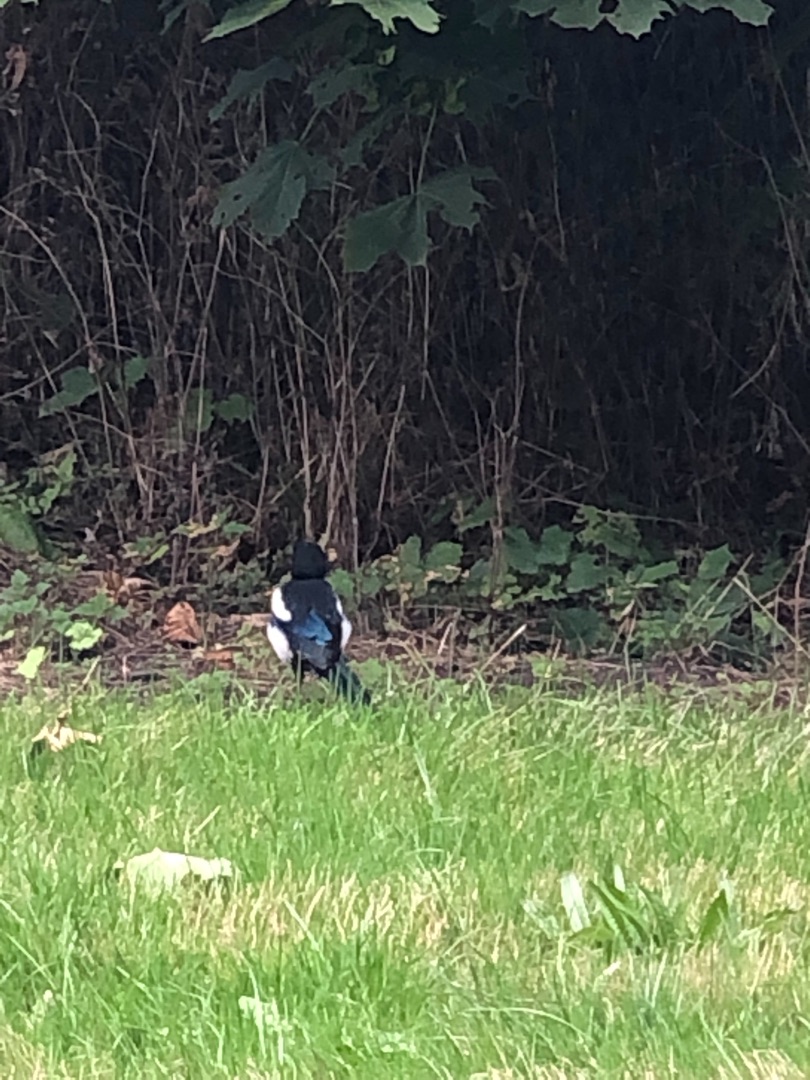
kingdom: Animalia
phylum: Chordata
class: Aves
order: Passeriformes
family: Corvidae
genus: Pica
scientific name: Pica pica
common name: Husskade
